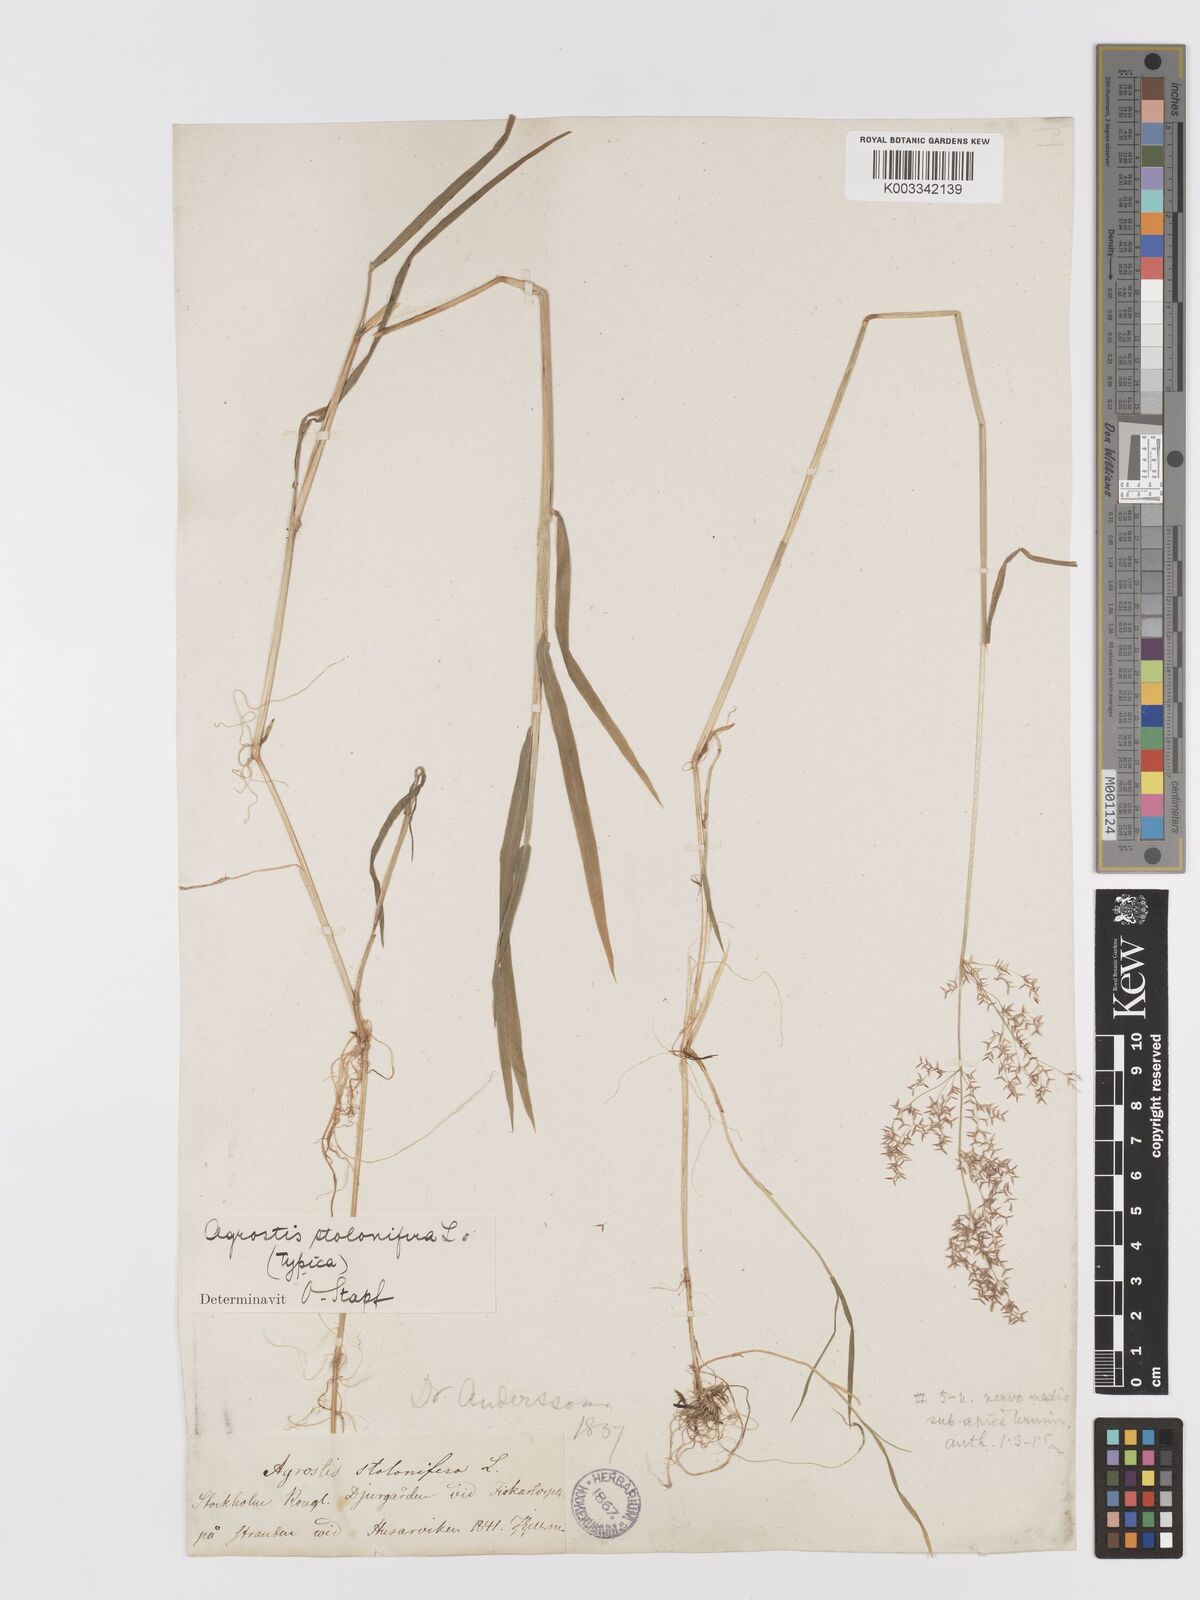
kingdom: Plantae
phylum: Tracheophyta
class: Liliopsida
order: Poales
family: Poaceae
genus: Agrostis
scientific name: Agrostis stolonifera
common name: Creeping bentgrass
